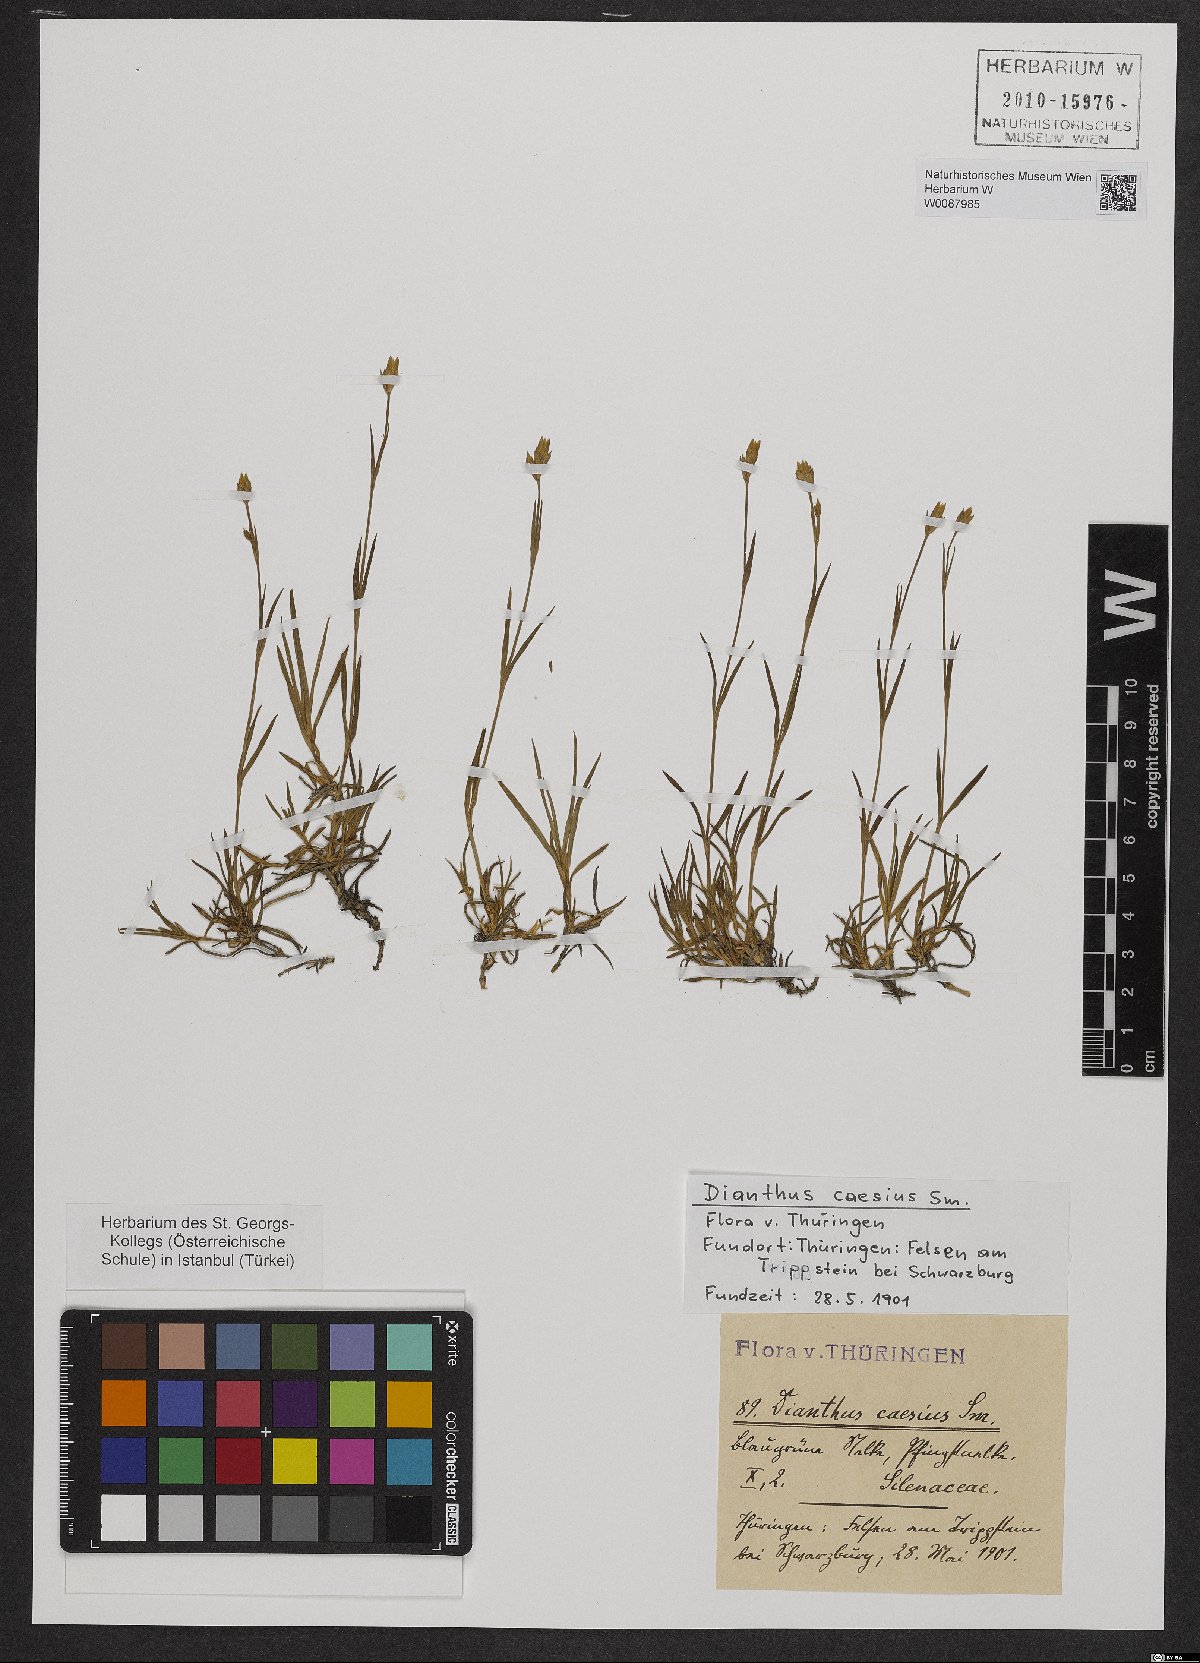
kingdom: Plantae
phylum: Tracheophyta
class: Magnoliopsida
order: Caryophyllales
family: Caryophyllaceae
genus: Dianthus
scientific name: Dianthus gratianopolitanus
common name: Cheddar pink
